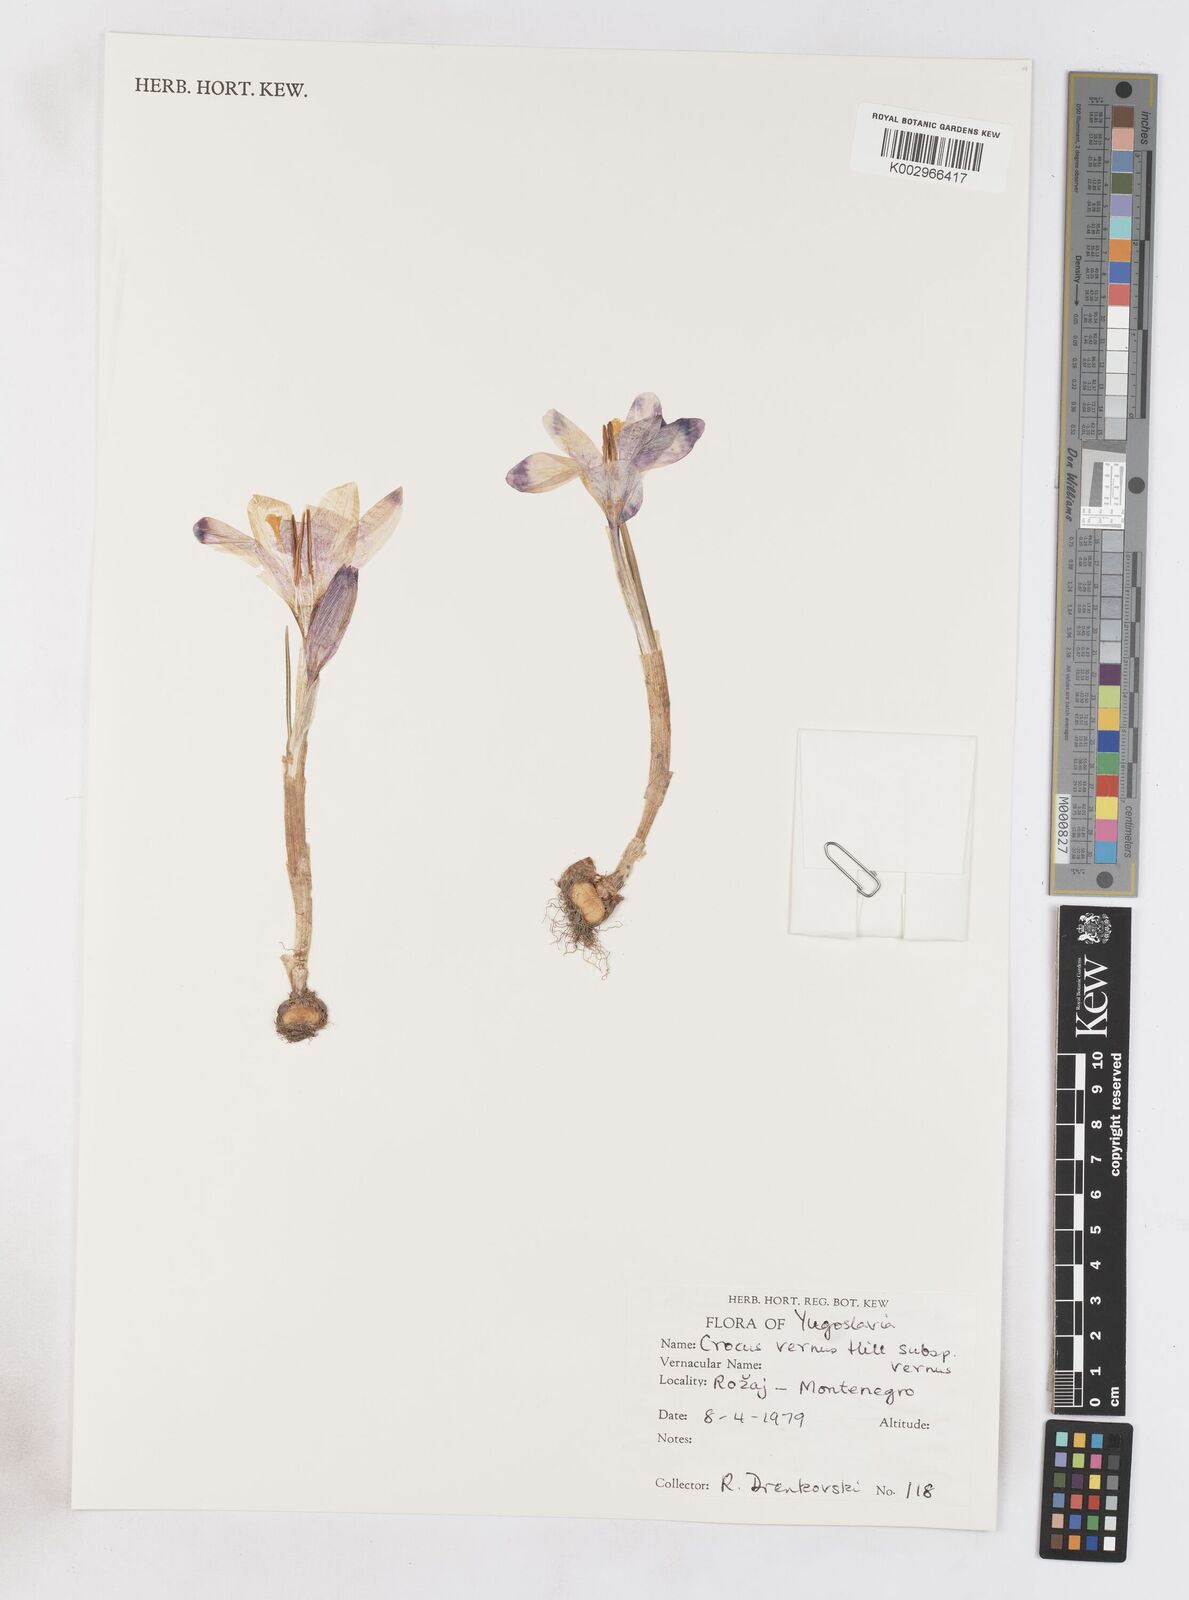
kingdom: Plantae
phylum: Tracheophyta
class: Liliopsida
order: Asparagales
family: Iridaceae
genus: Crocus
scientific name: Crocus vernus
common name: Spring crocus
